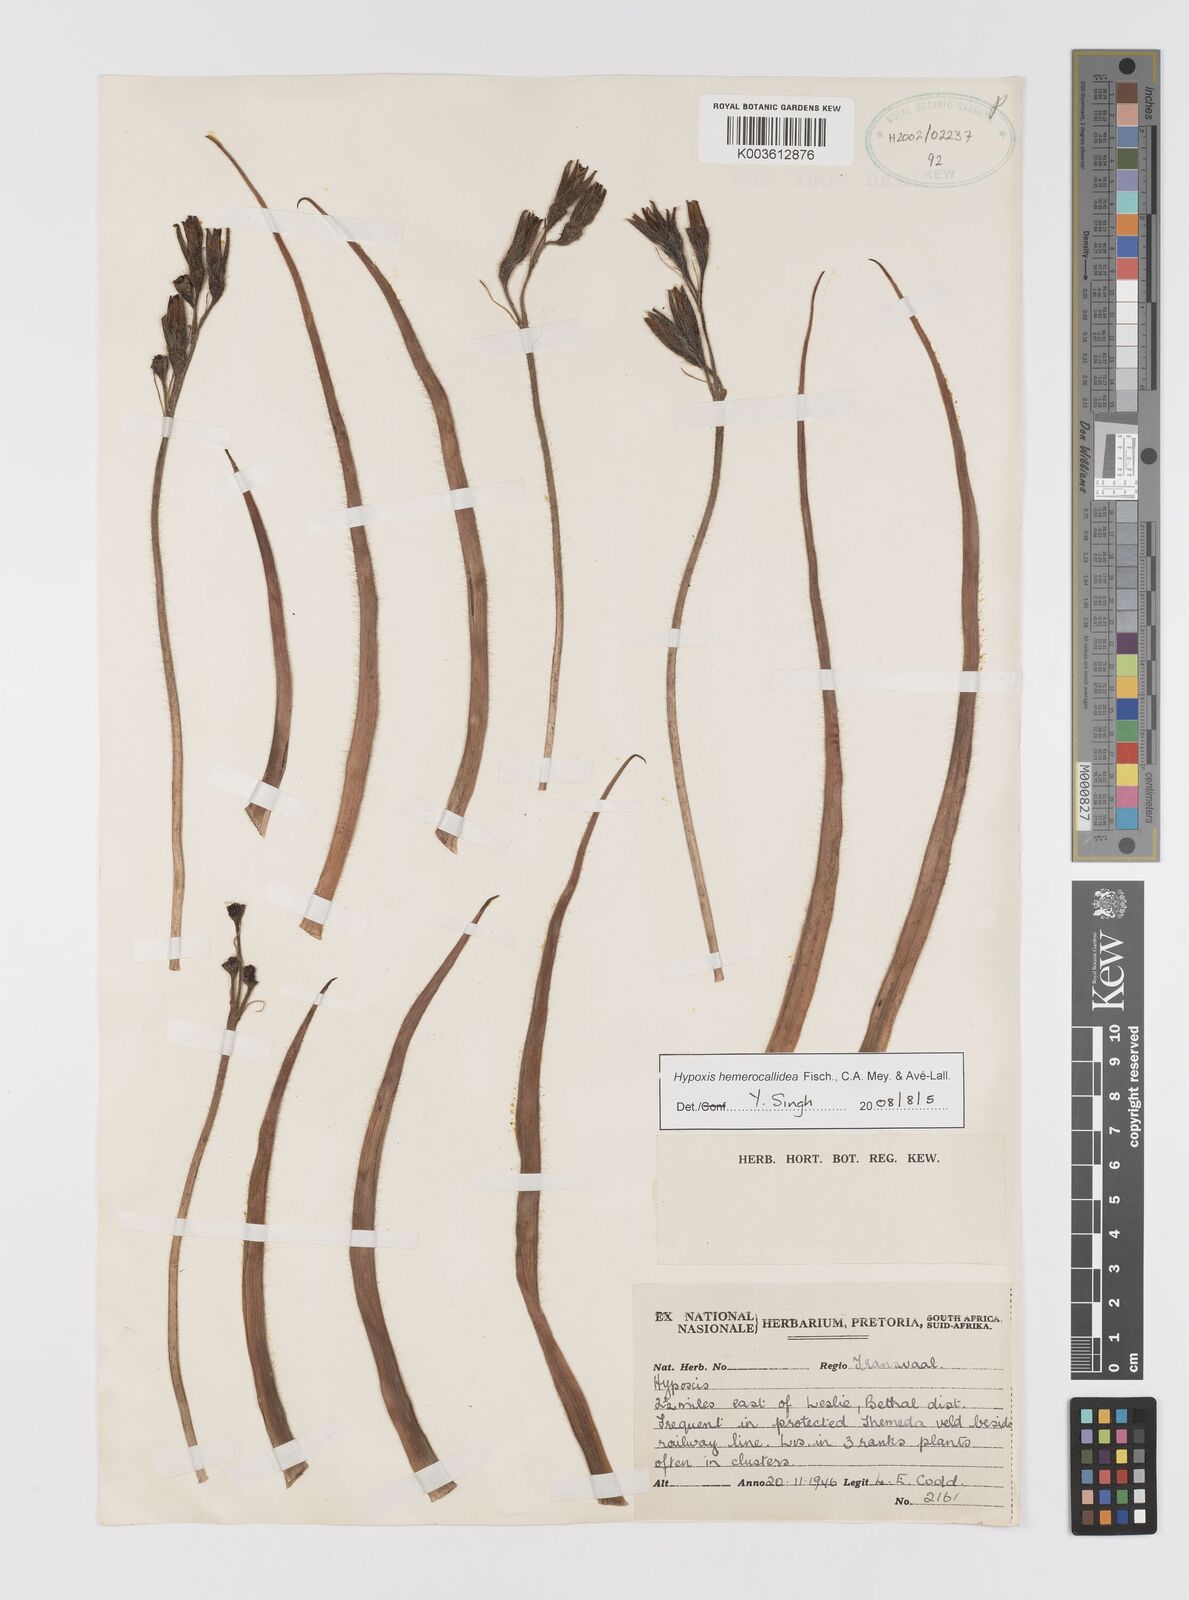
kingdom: Plantae
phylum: Tracheophyta
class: Liliopsida
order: Asparagales
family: Hypoxidaceae
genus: Hypoxis
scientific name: Hypoxis hemerocallidea
